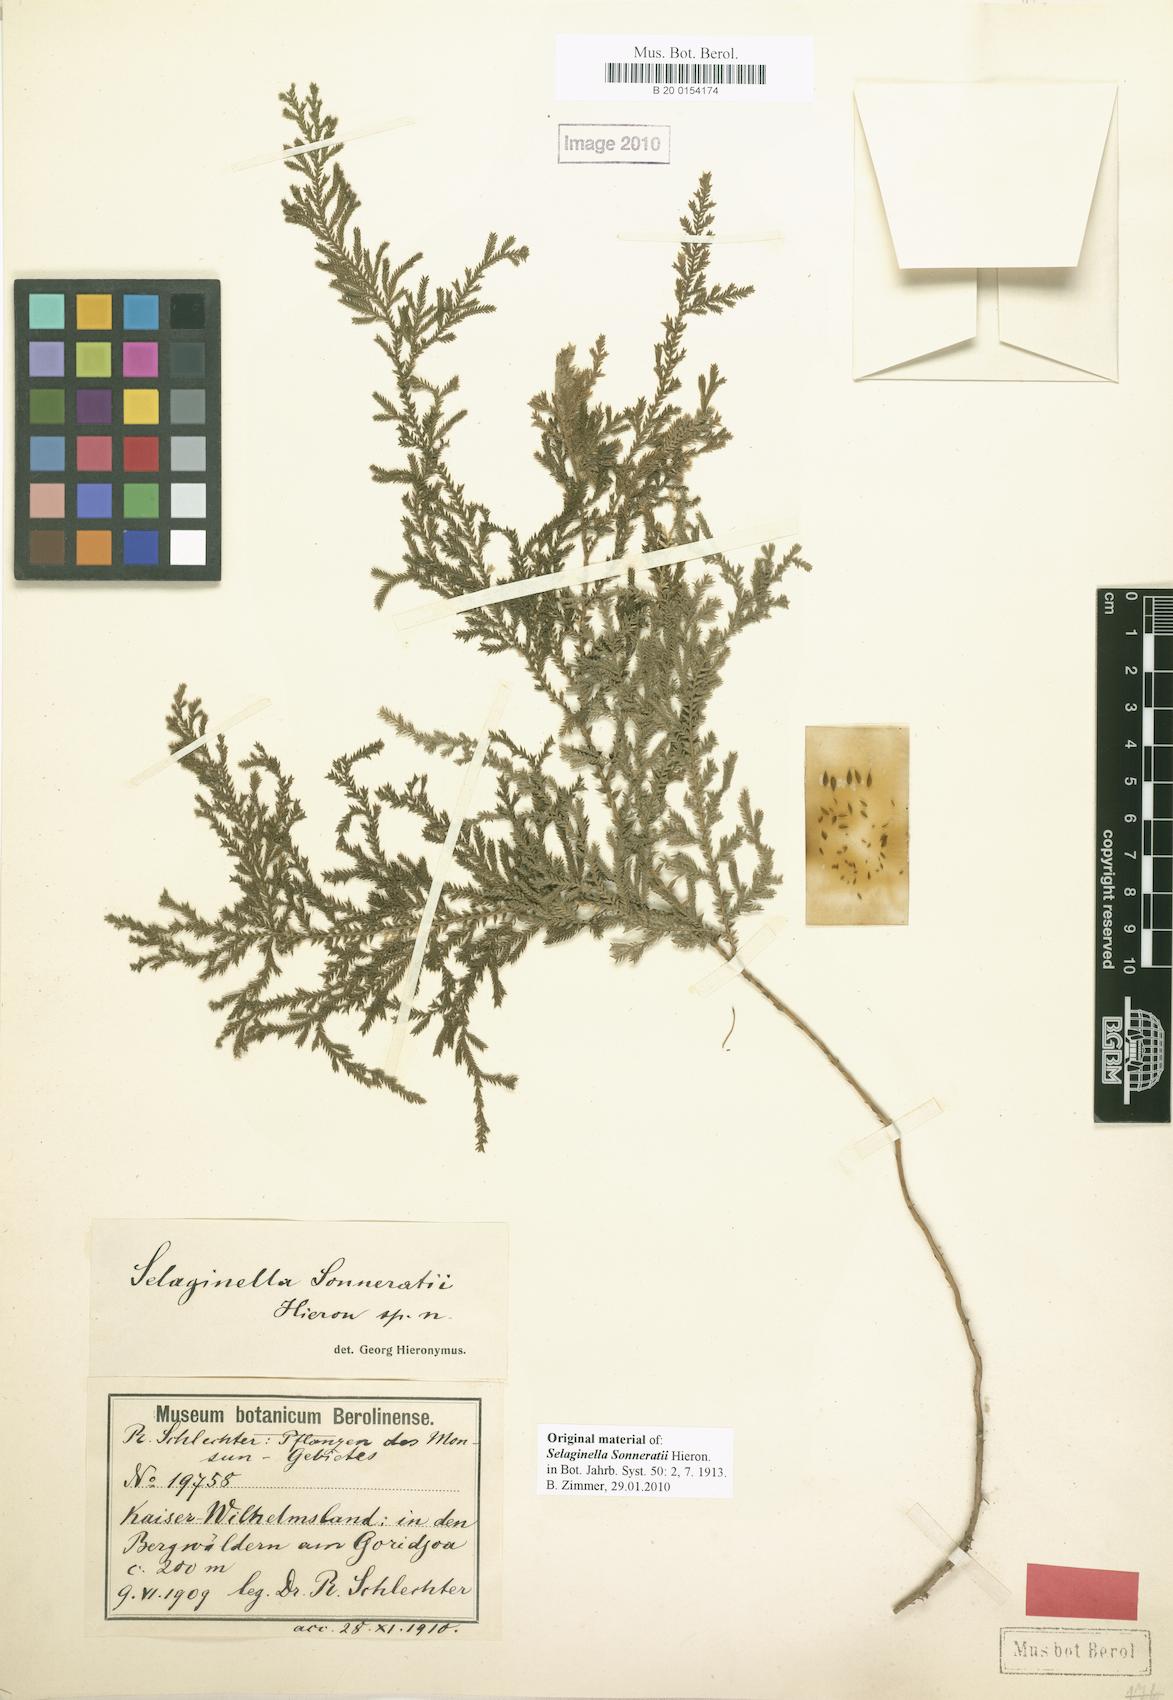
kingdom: Plantae
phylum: Tracheophyta
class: Lycopodiopsida
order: Selaginellales
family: Selaginellaceae
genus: Selaginella
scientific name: Selaginella sonneratii
